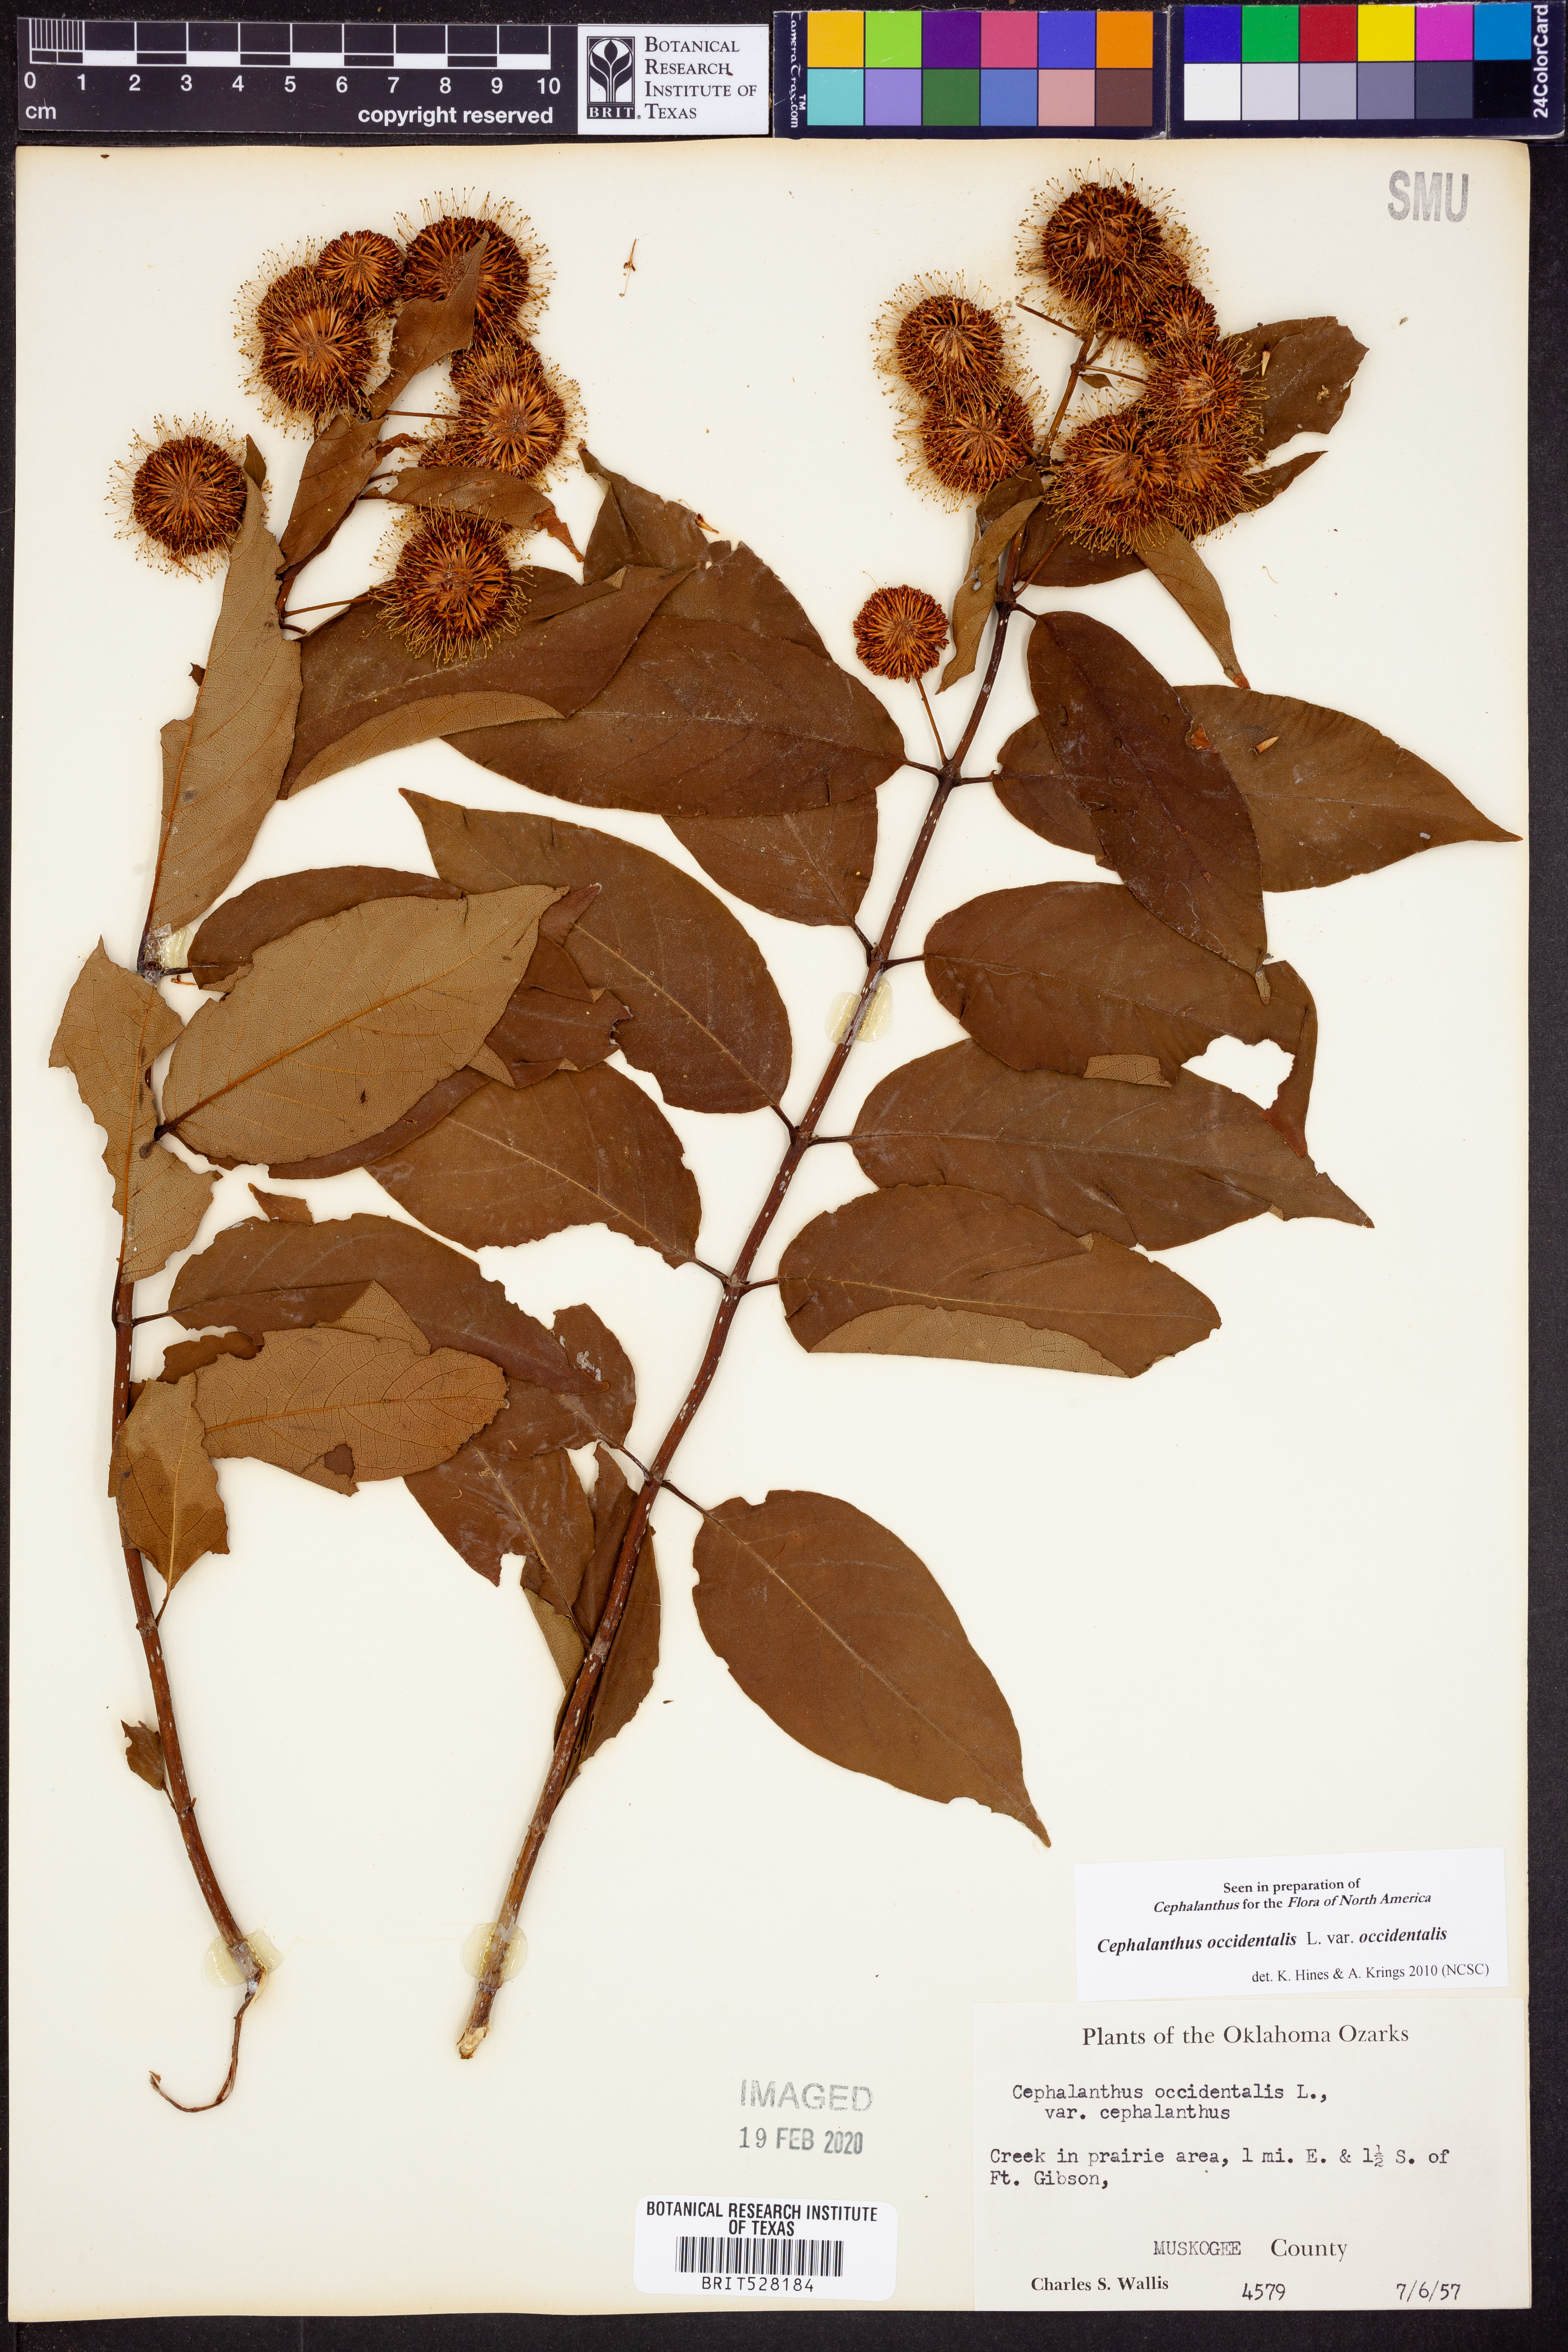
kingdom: Plantae
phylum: Tracheophyta
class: Magnoliopsida
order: Gentianales
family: Rubiaceae
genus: Cephalanthus
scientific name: Cephalanthus occidentalis
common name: Button-willow
